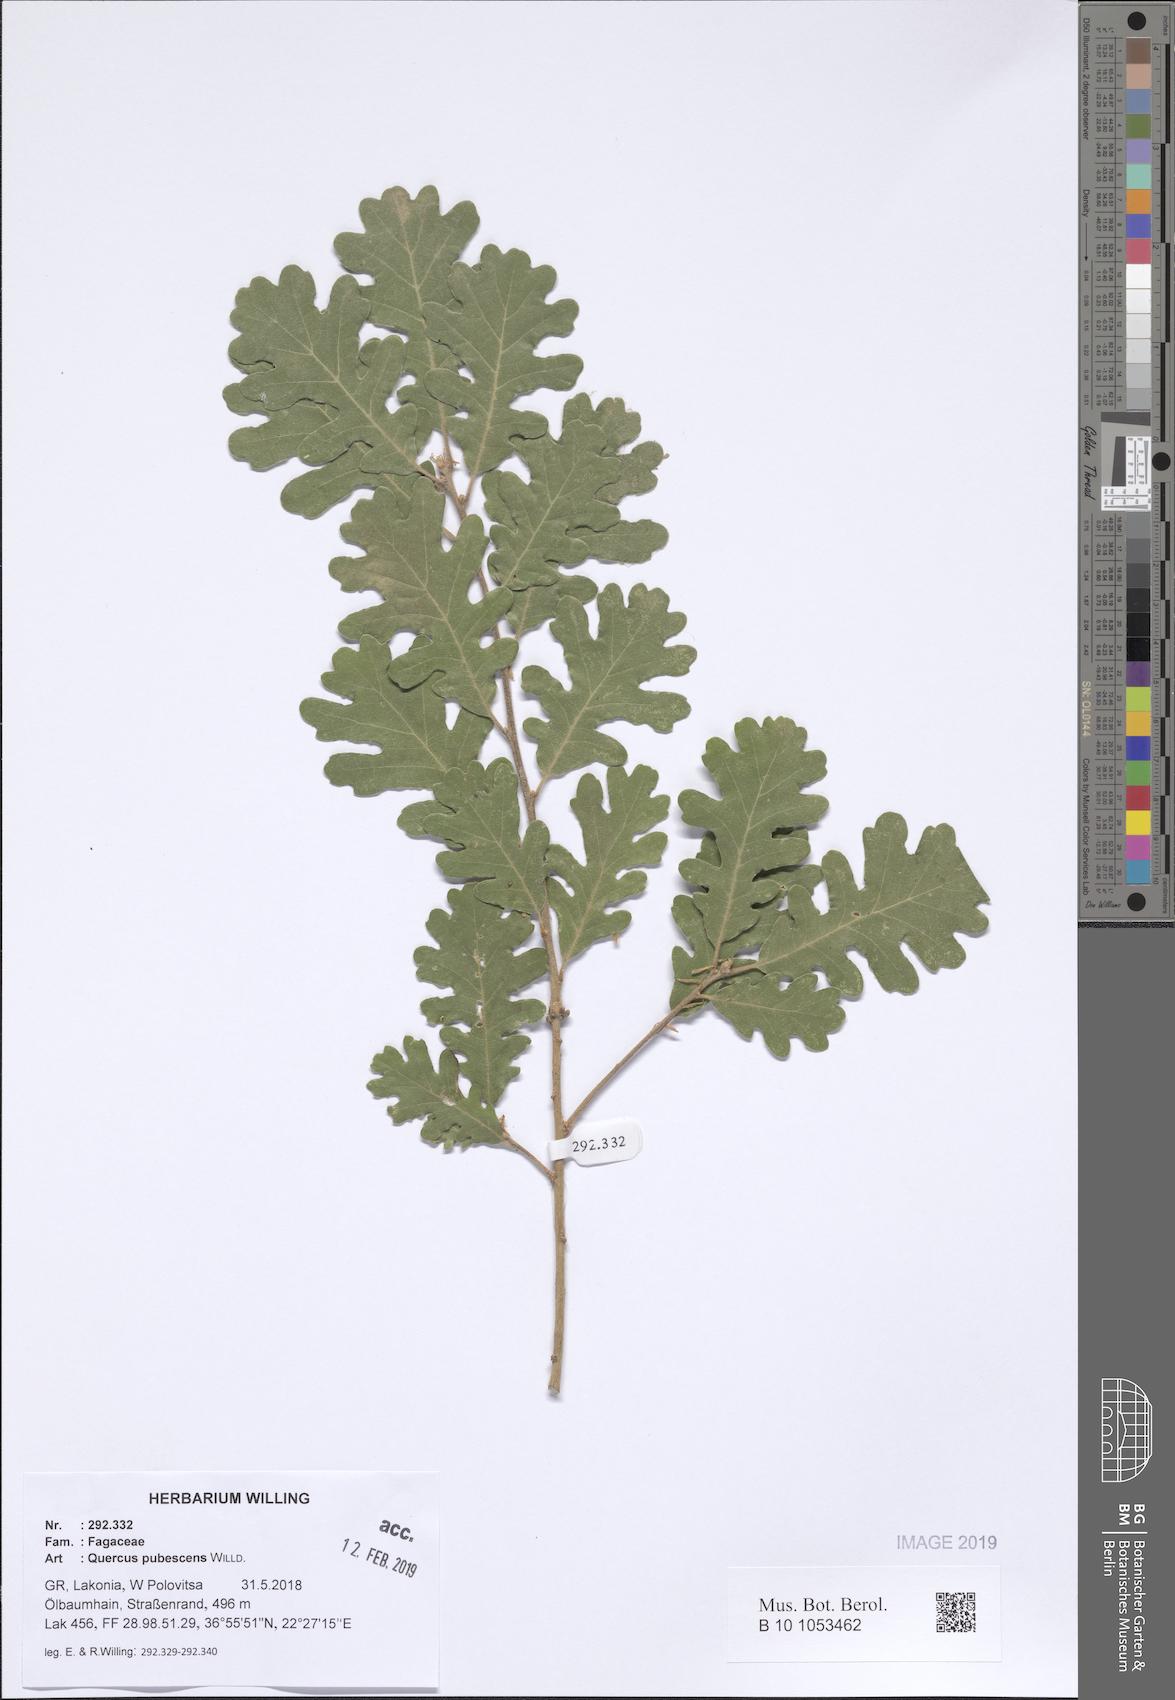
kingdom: Plantae
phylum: Tracheophyta
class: Magnoliopsida
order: Fagales
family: Fagaceae
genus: Quercus
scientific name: Quercus pubescens
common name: Downy oak
